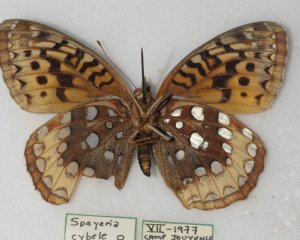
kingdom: Animalia
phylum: Arthropoda
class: Insecta
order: Lepidoptera
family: Nymphalidae
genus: Speyeria
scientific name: Speyeria cybele
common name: Great Spangled Fritillary
